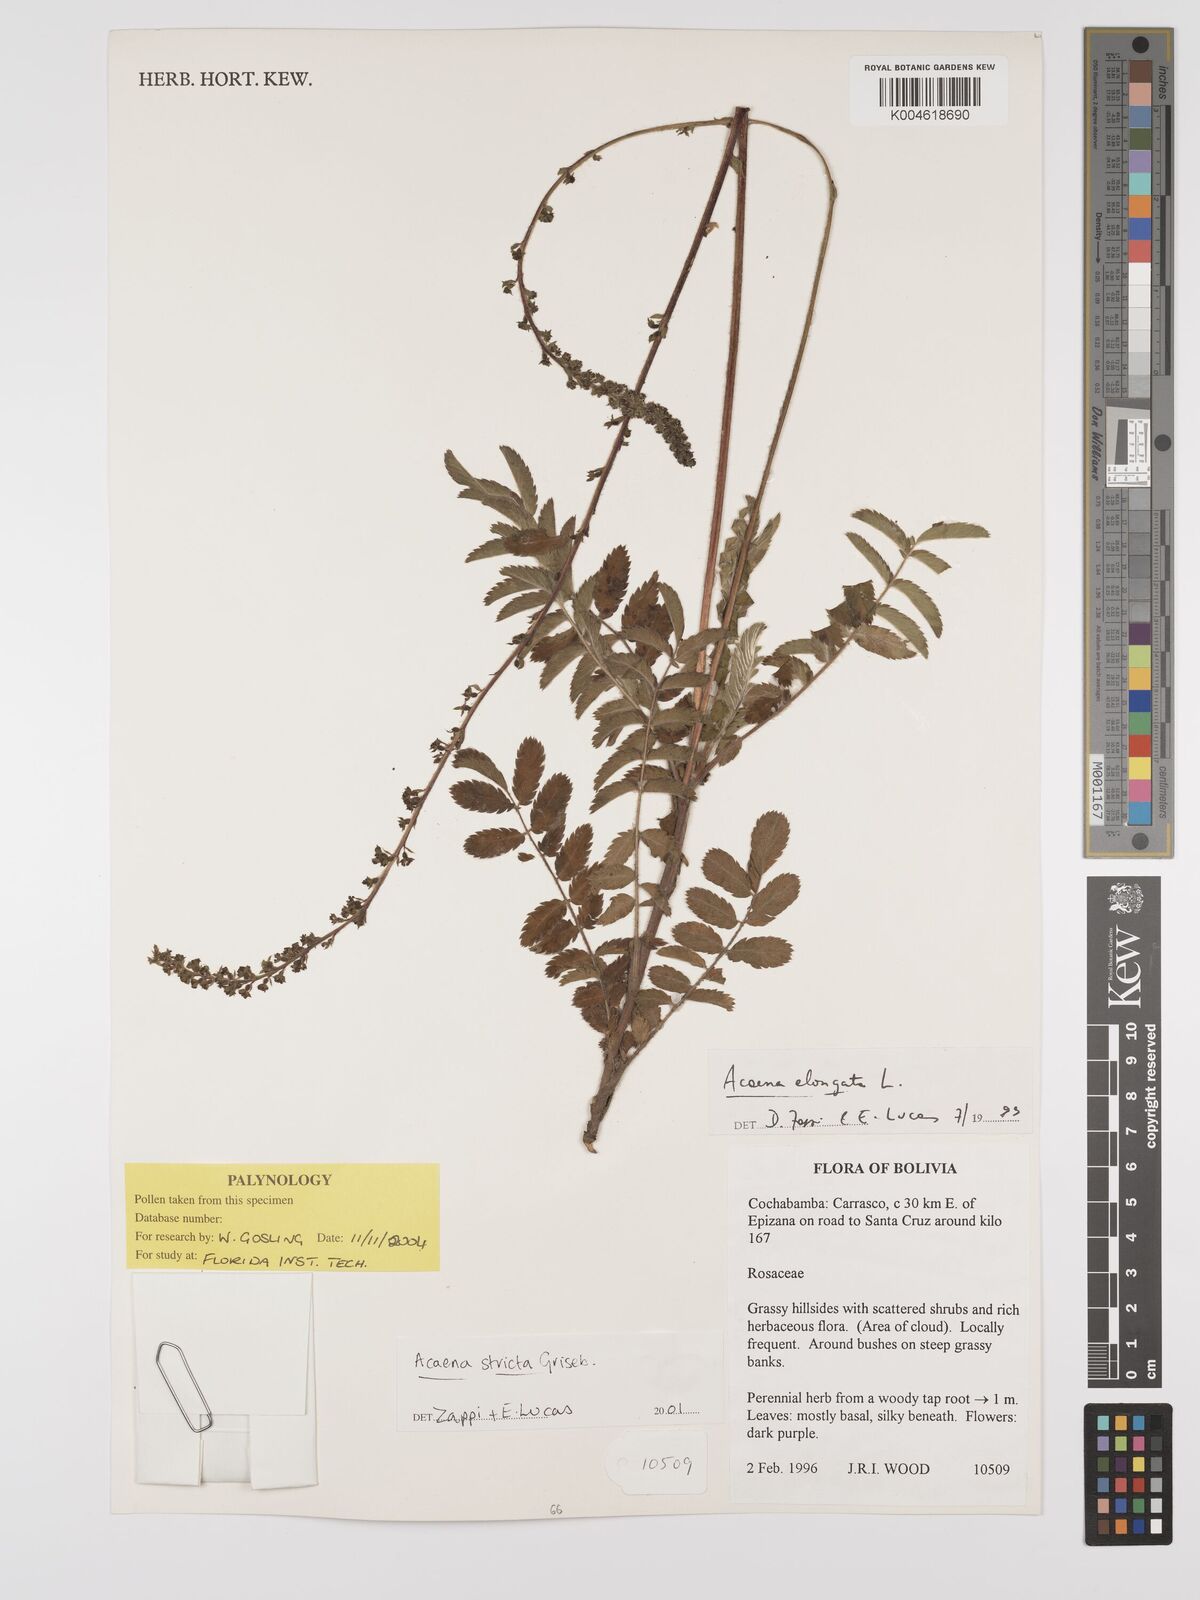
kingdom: Plantae
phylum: Tracheophyta
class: Magnoliopsida
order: Rosales
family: Rosaceae
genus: Acaena
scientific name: Acaena stricta
